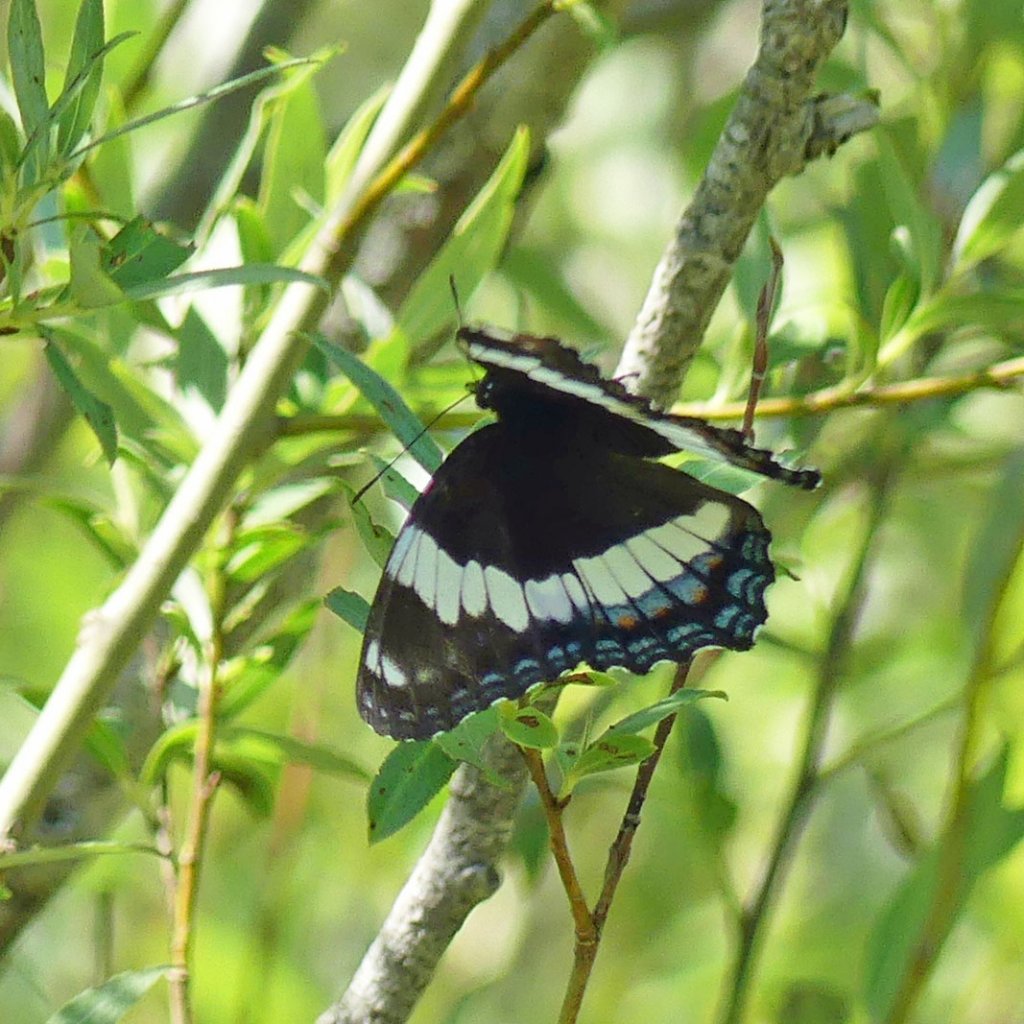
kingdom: Animalia
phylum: Arthropoda
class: Insecta
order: Lepidoptera
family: Nymphalidae
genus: Limenitis
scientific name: Limenitis arthemis
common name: Red-spotted Admiral
